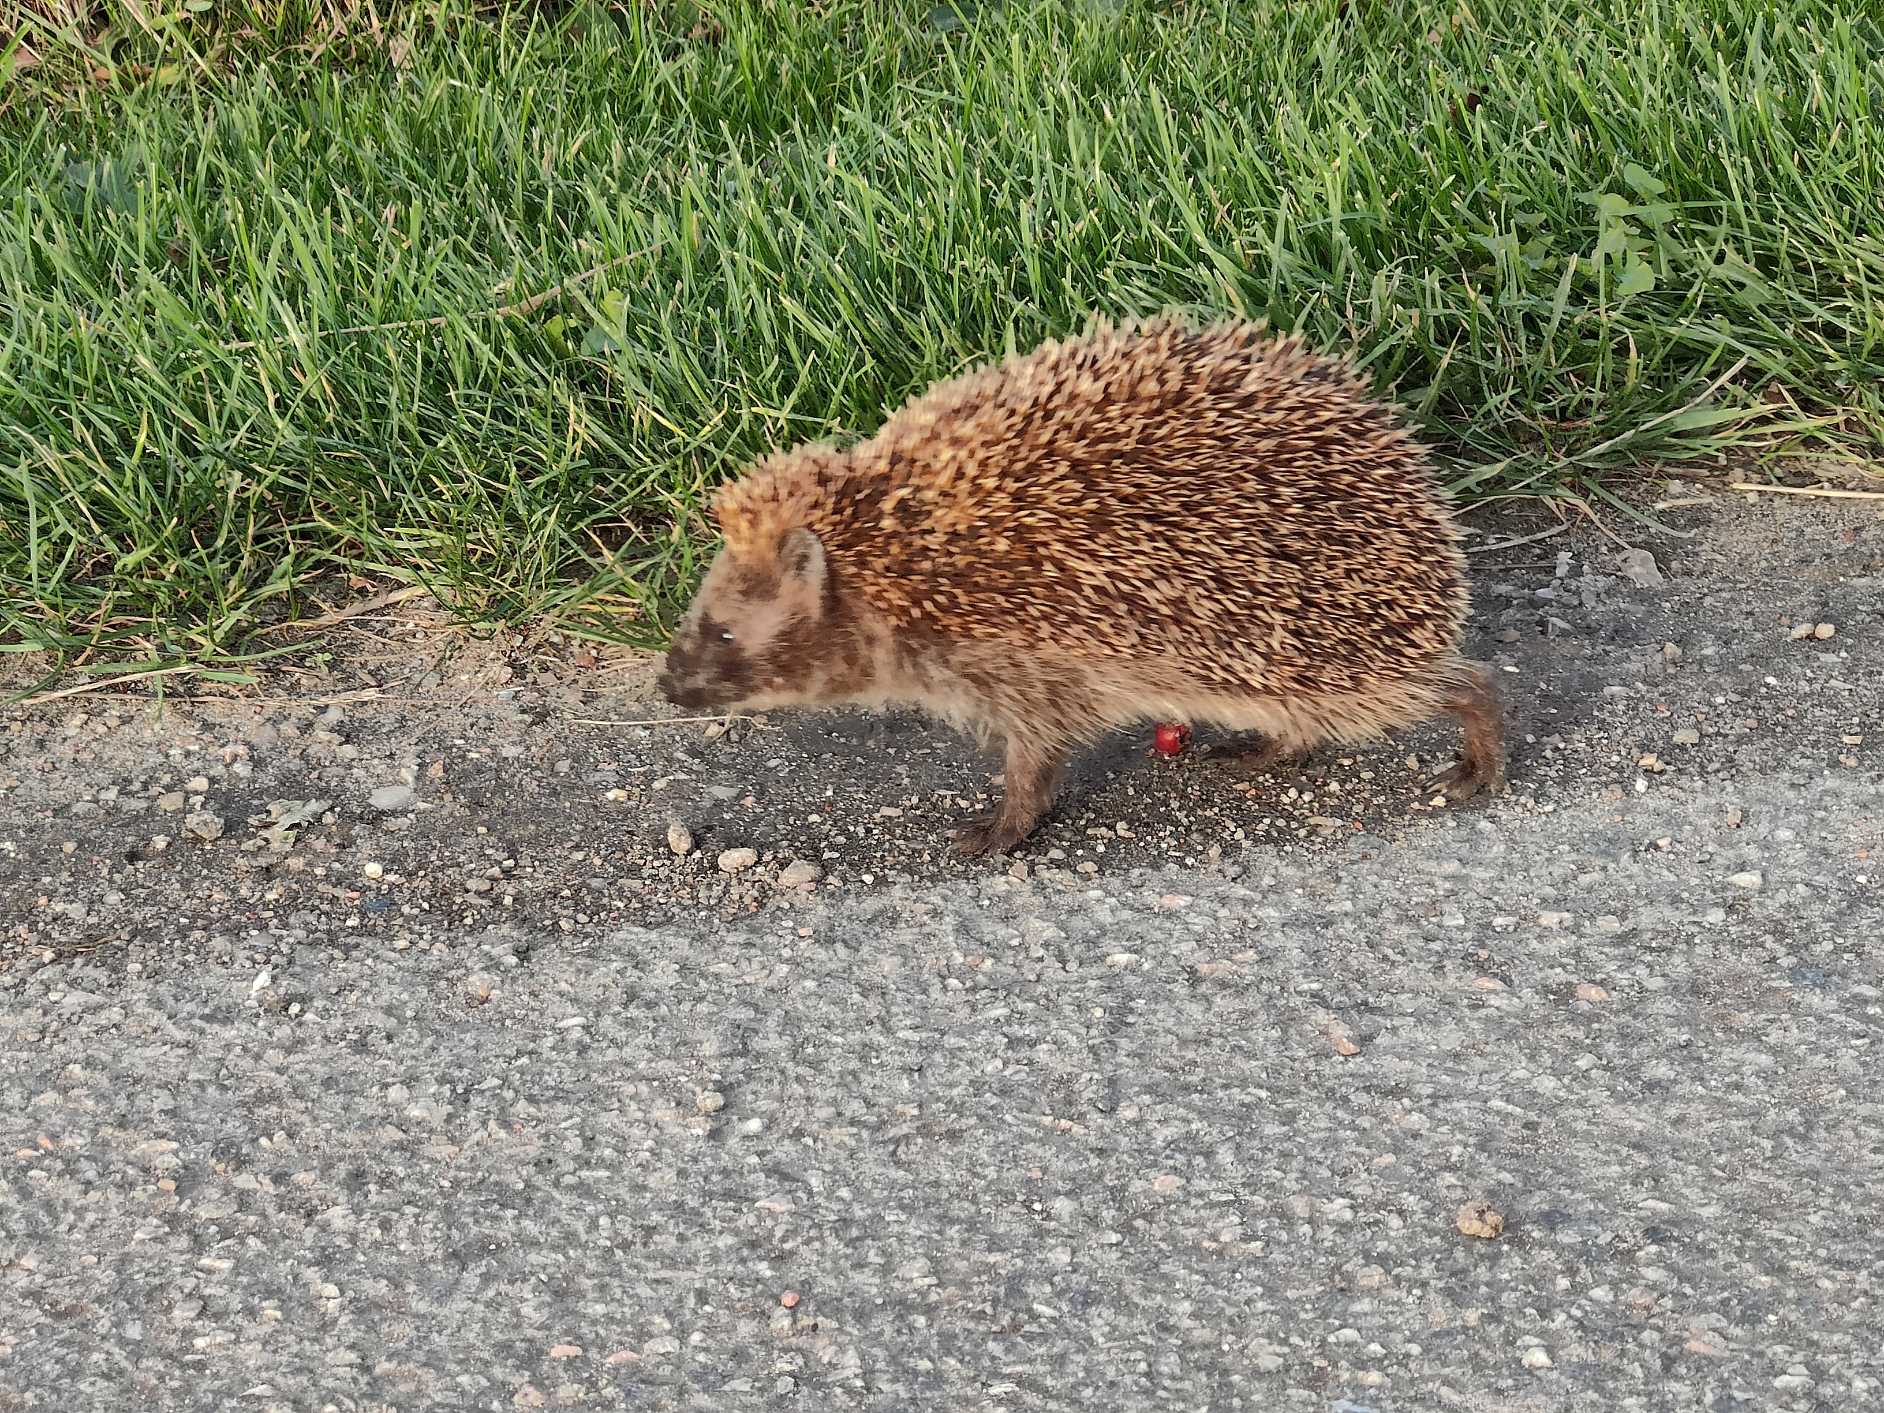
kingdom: Animalia
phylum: Chordata
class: Mammalia
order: Erinaceomorpha
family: Erinaceidae
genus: Erinaceus
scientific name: Erinaceus europaeus
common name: Pindsvin
